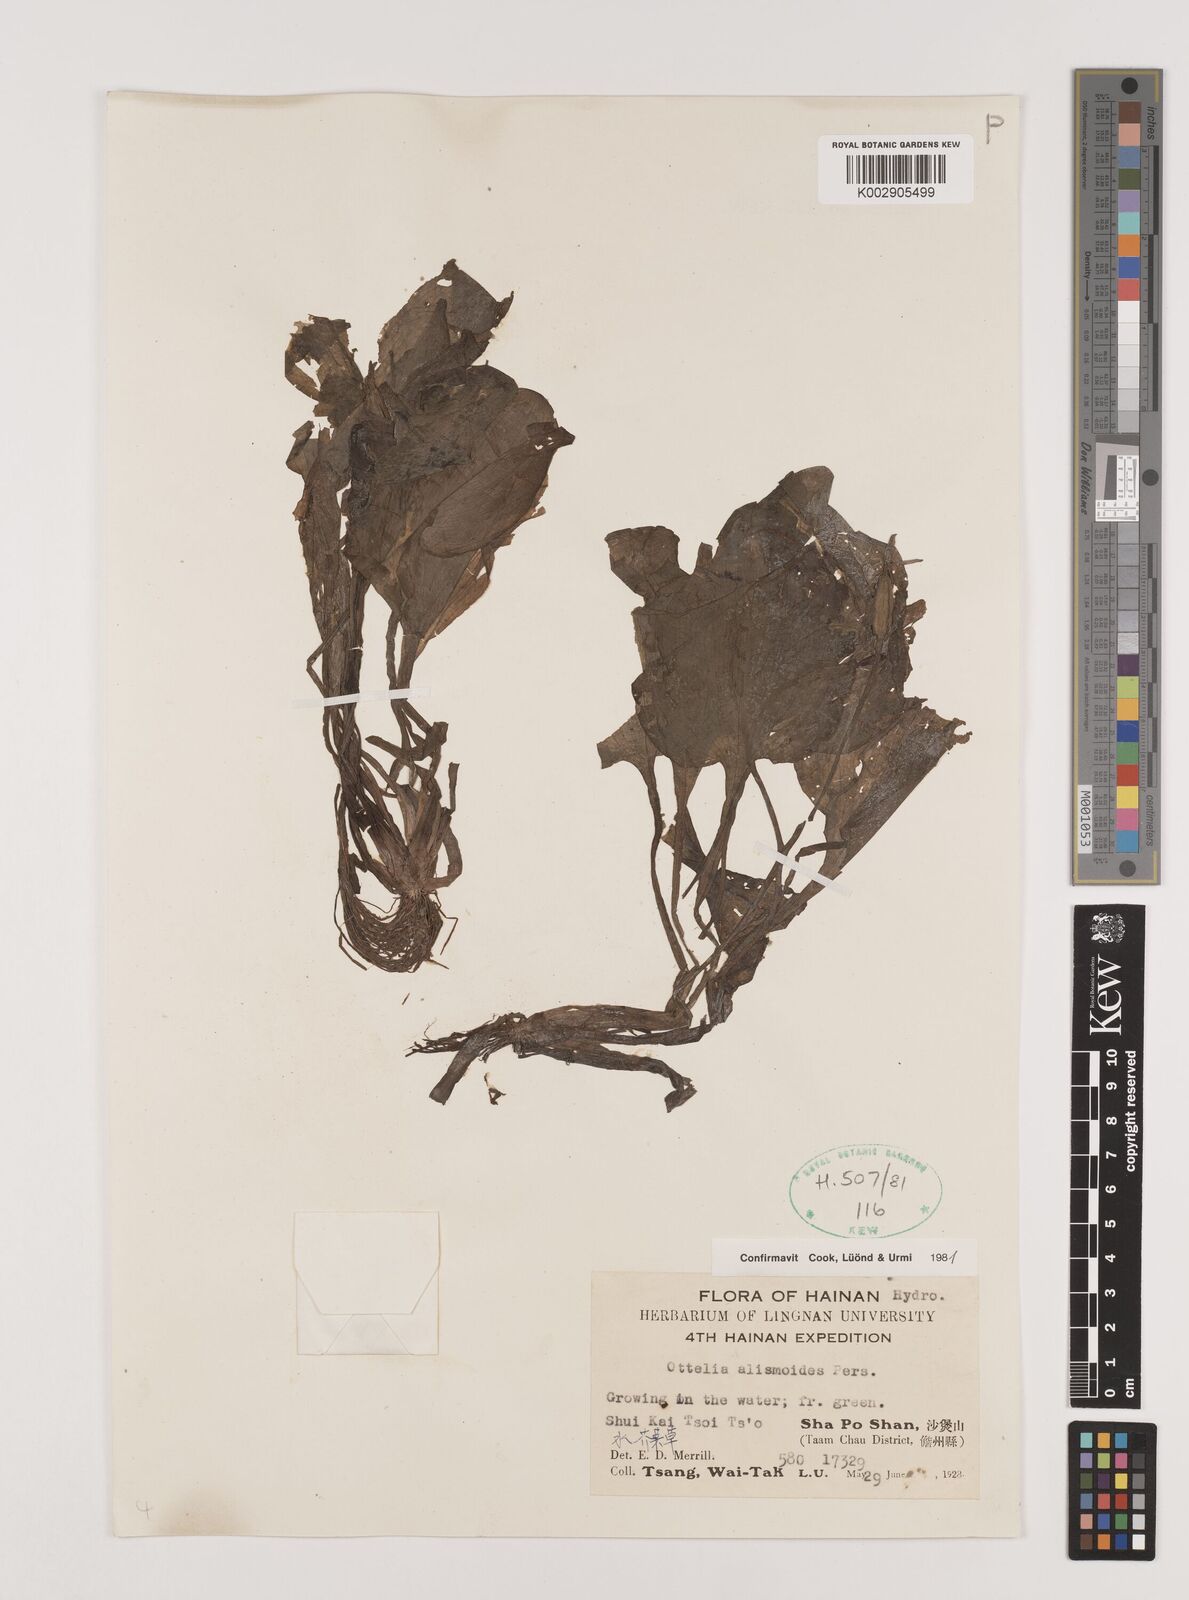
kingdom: Plantae
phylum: Tracheophyta
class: Liliopsida
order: Alismatales
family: Hydrocharitaceae
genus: Ottelia
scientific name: Ottelia alismoides
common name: Duck-lettuce
